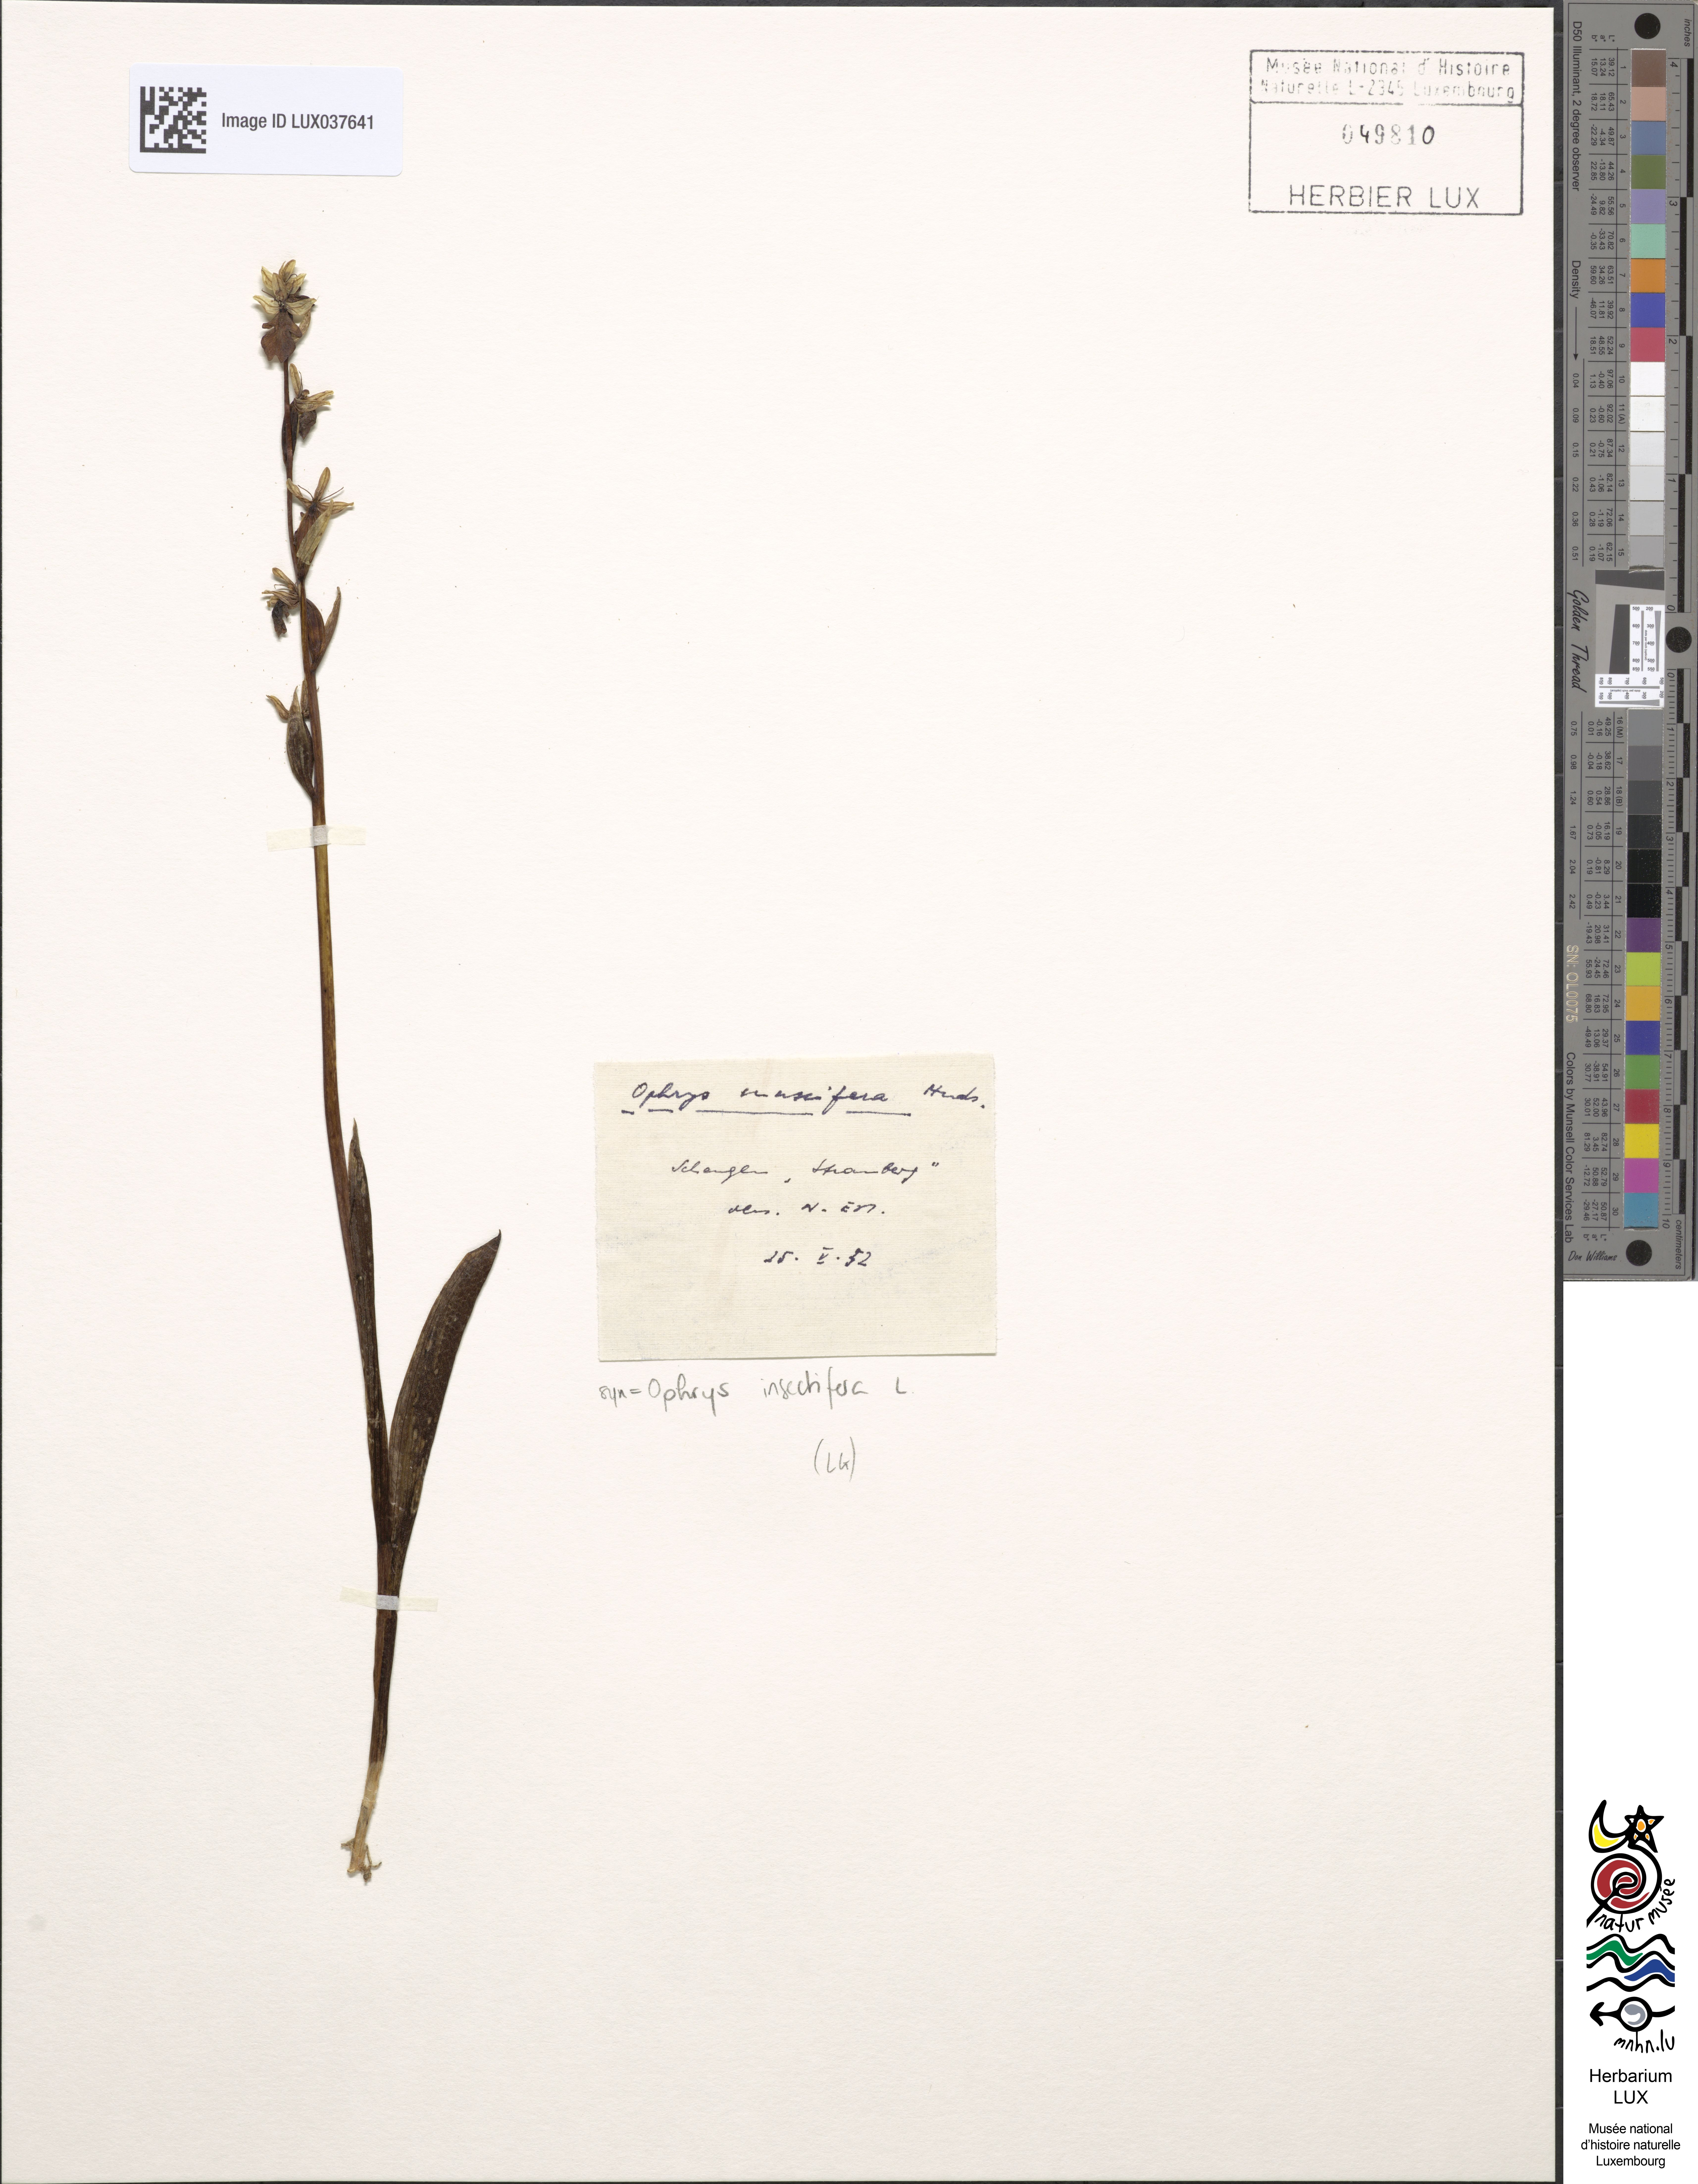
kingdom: Plantae
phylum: Tracheophyta
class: Liliopsida
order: Asparagales
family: Orchidaceae
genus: Ophrys
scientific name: Ophrys insectifera
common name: Fly orchid
